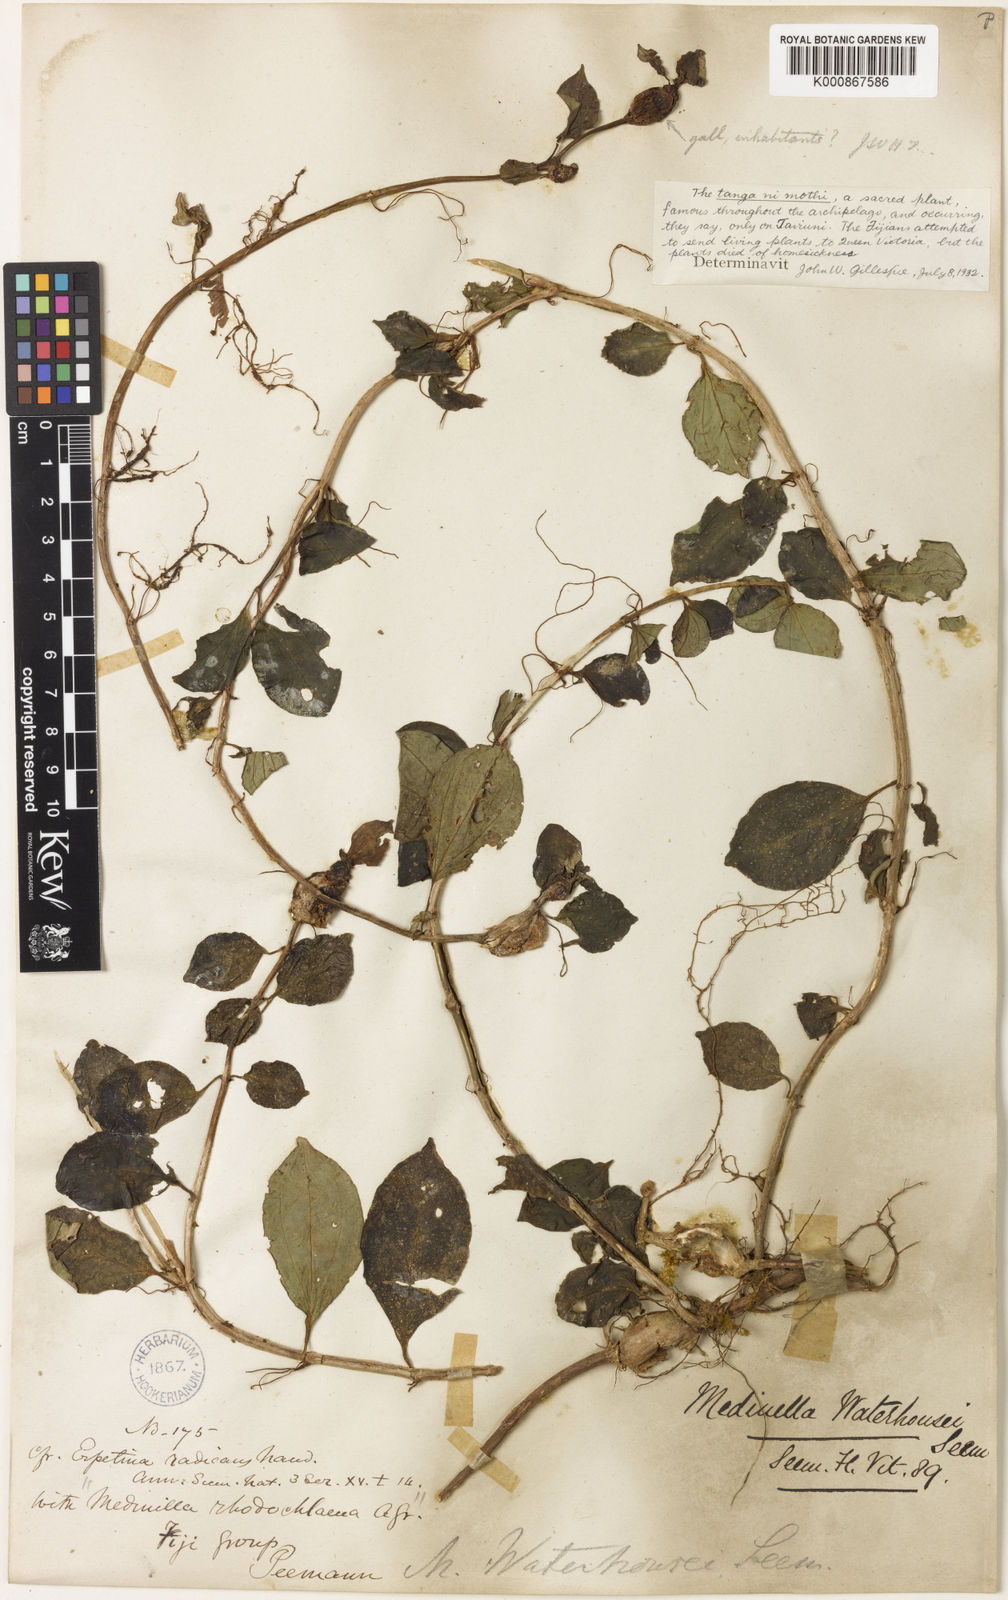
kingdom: Plantae
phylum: Tracheophyta
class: Magnoliopsida
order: Myrtales
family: Melastomataceae
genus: Medinilla
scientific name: Medinilla waterhousei
